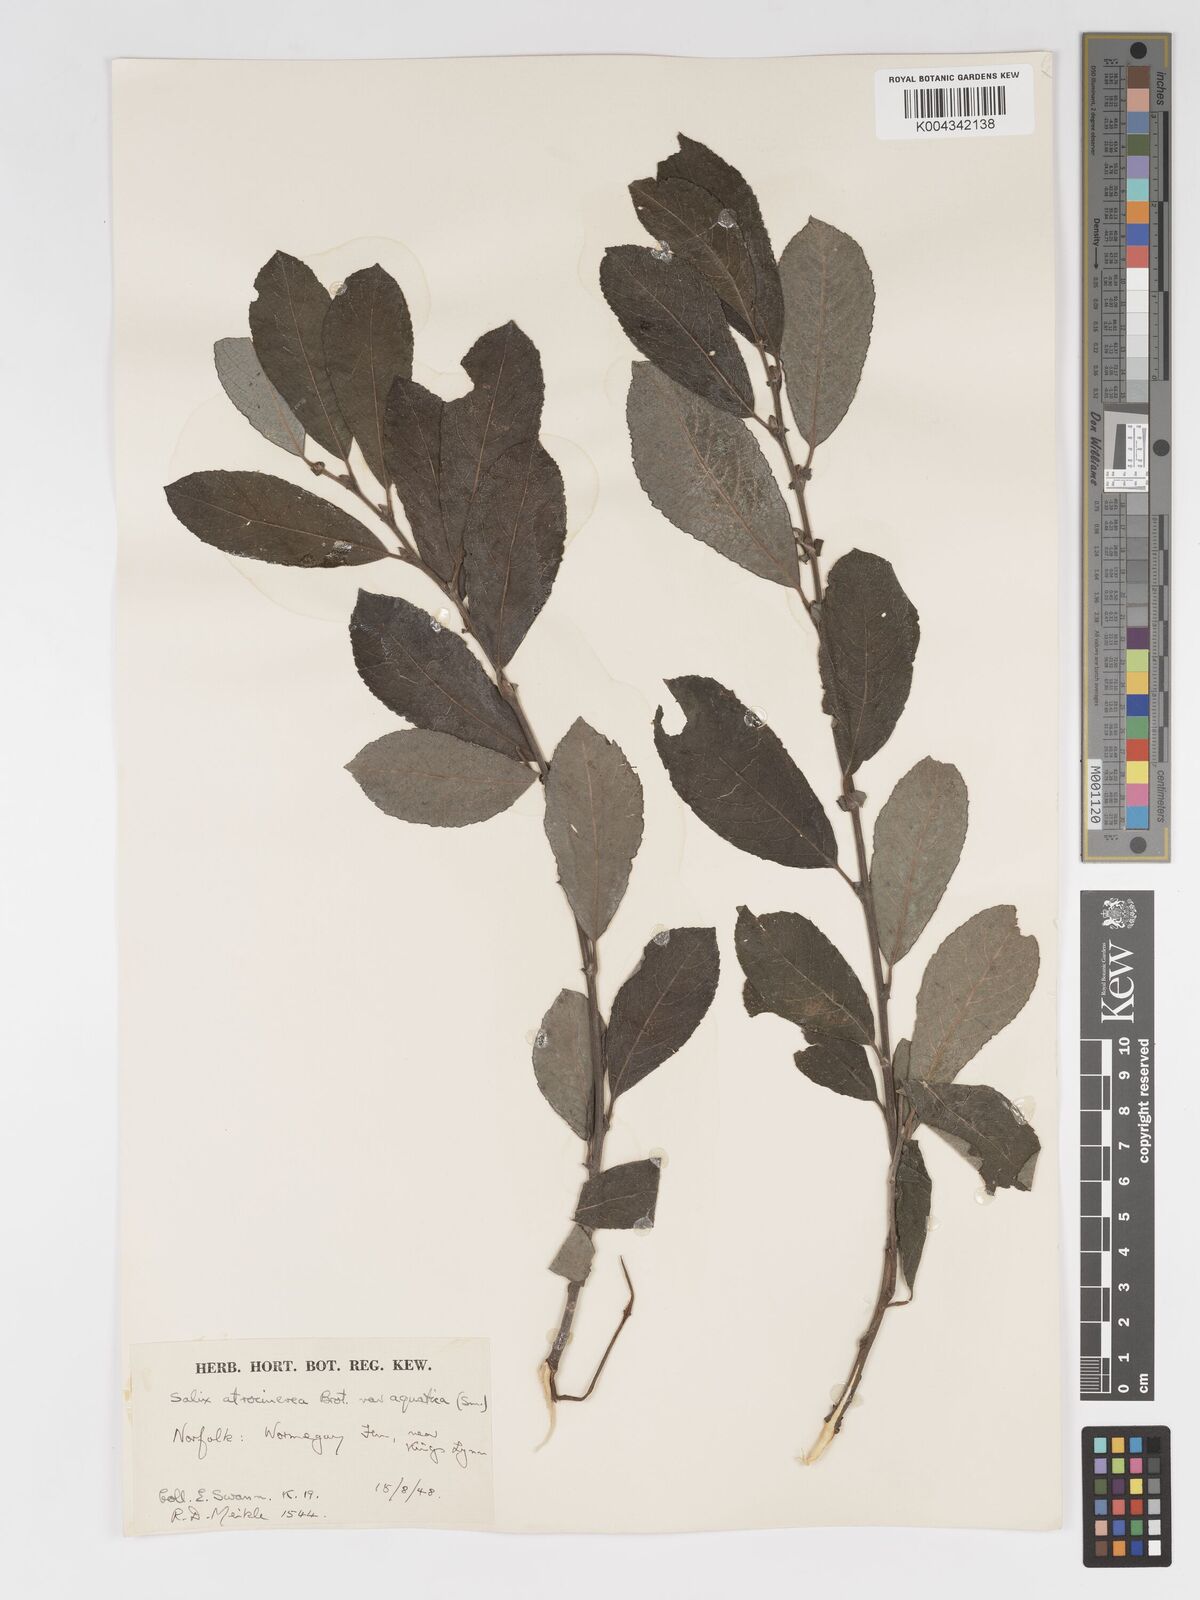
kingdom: Plantae
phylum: Tracheophyta
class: Magnoliopsida
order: Malpighiales
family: Salicaceae
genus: Salix
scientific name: Salix
